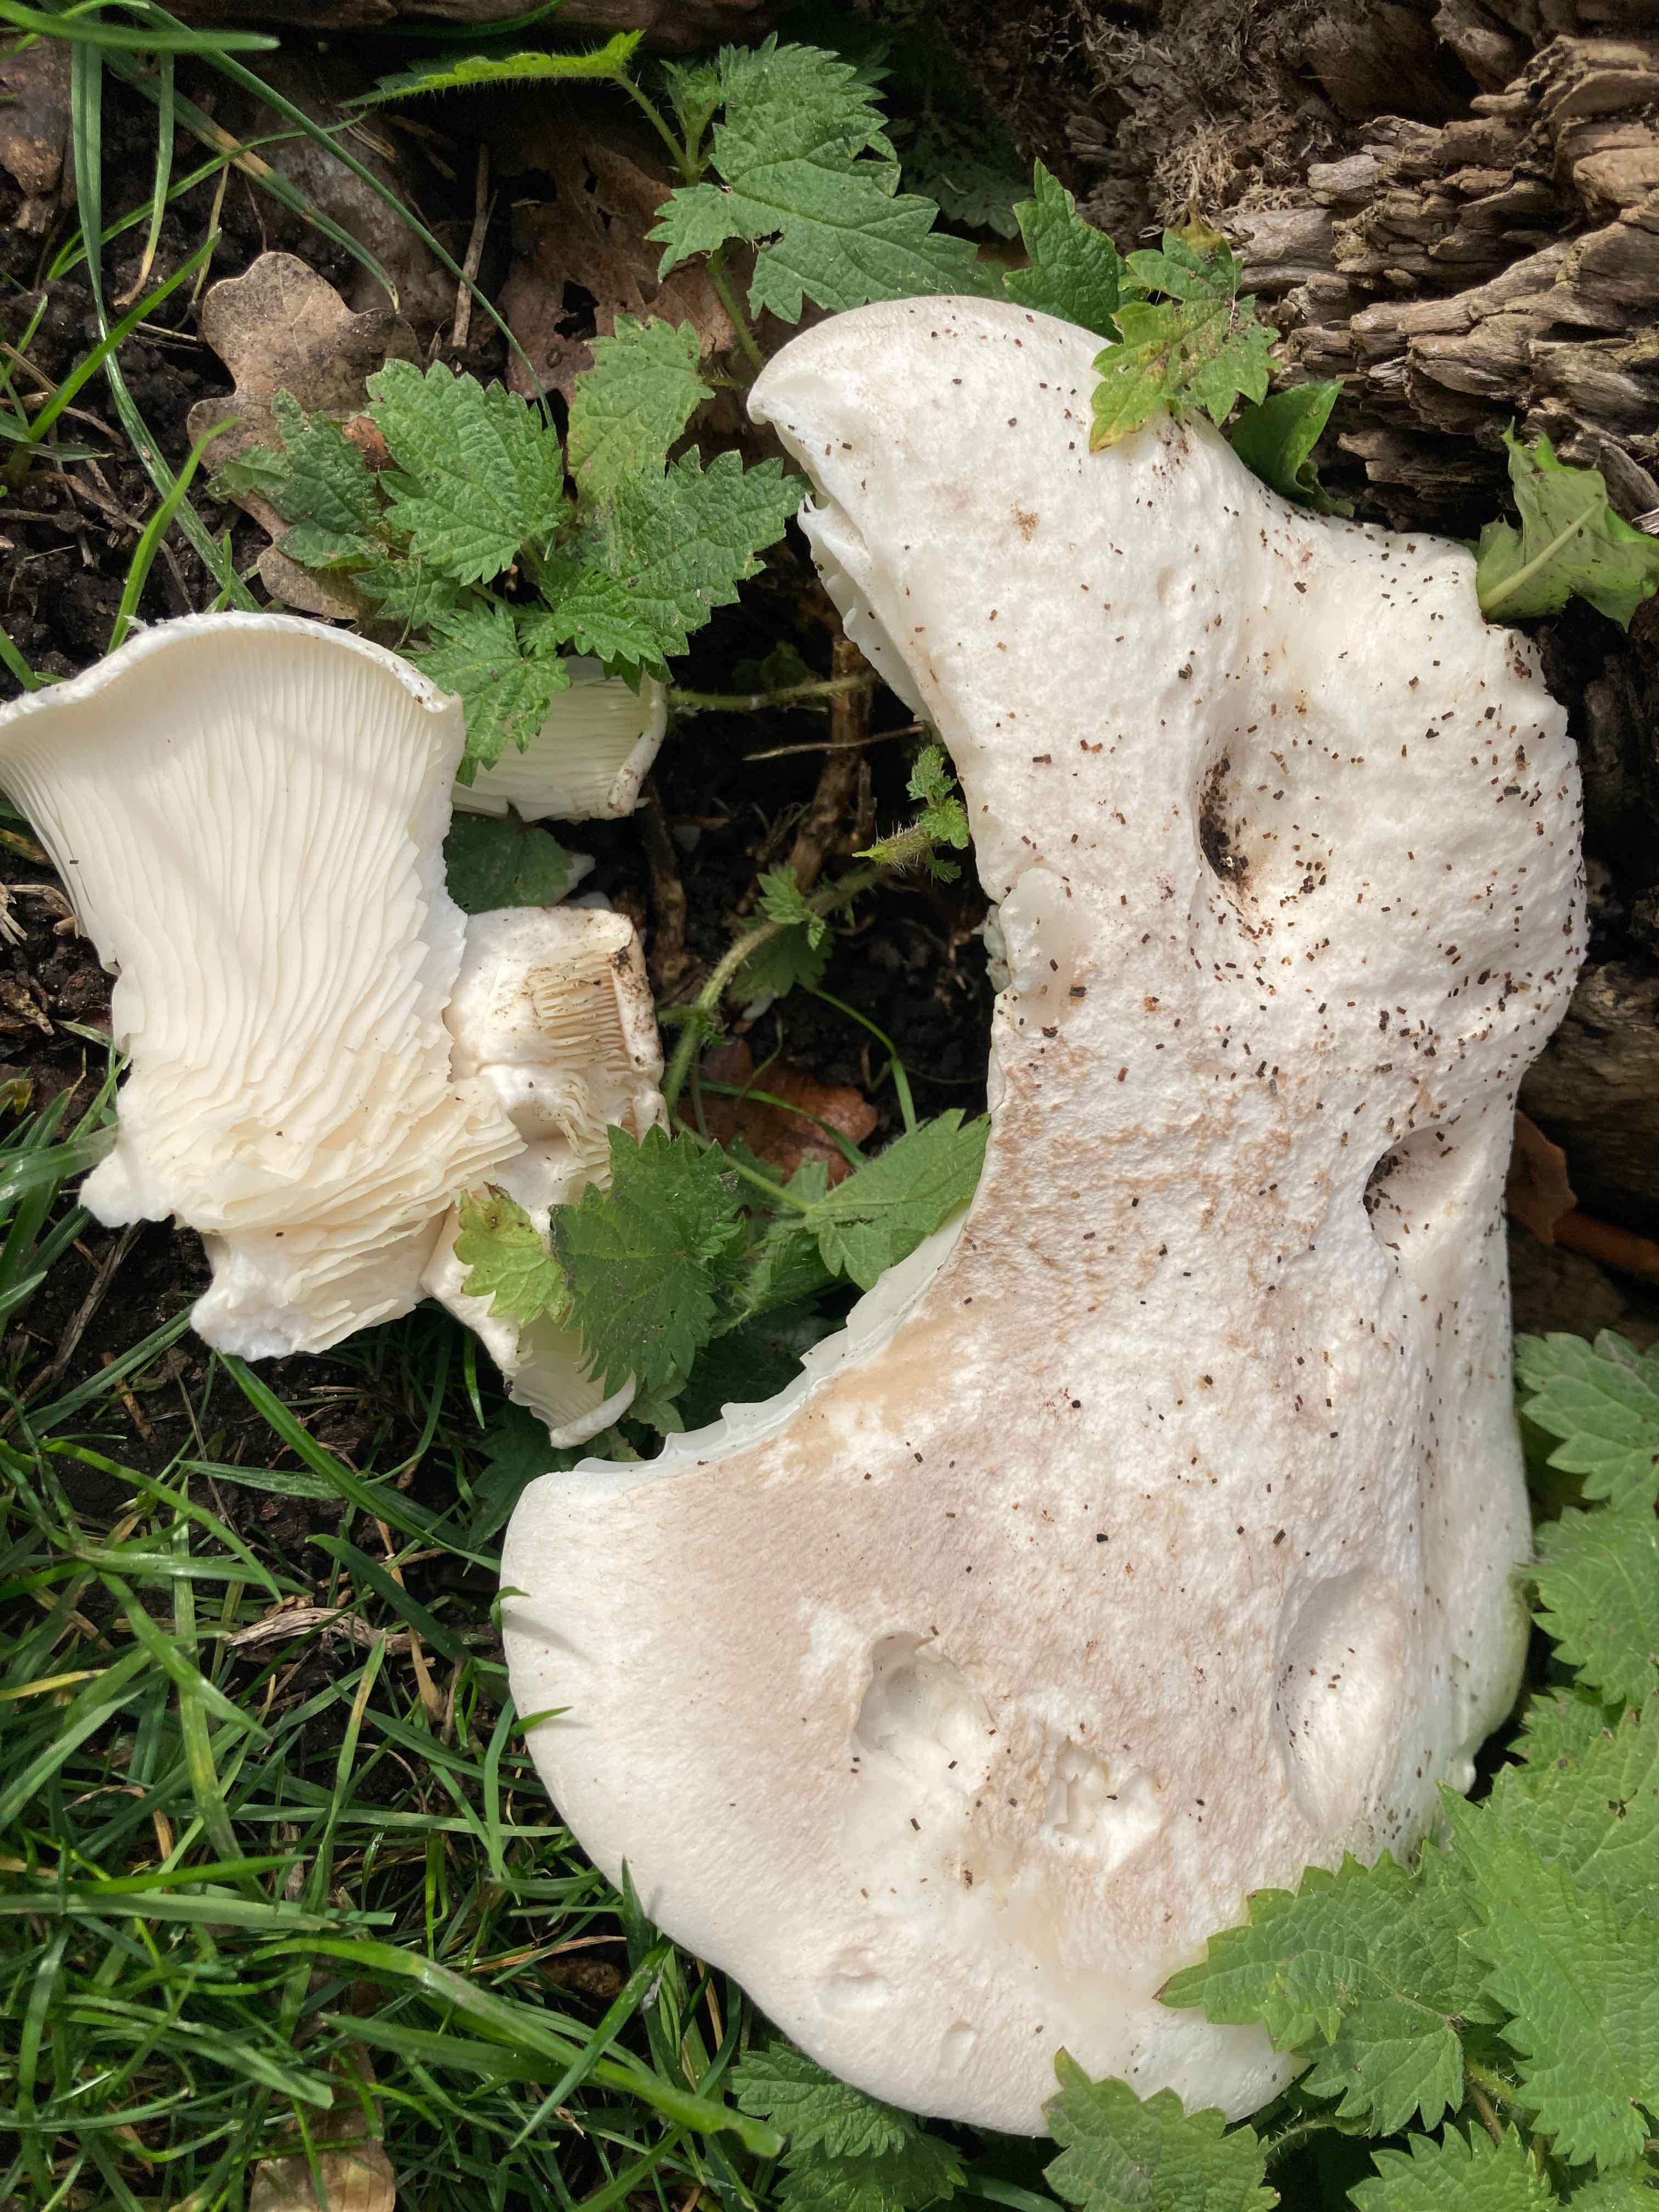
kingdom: Fungi
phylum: Basidiomycota
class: Agaricomycetes
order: Agaricales
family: Pleurotaceae
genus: Pleurotus
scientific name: Pleurotus dryinus
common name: korkagtig østershat
